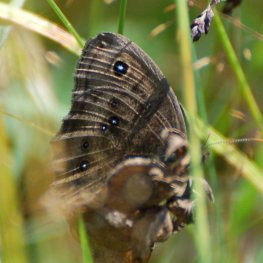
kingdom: Animalia
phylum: Arthropoda
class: Insecta
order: Lepidoptera
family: Nymphalidae
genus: Cercyonis
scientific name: Cercyonis pegala
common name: Common Wood-Nymph
